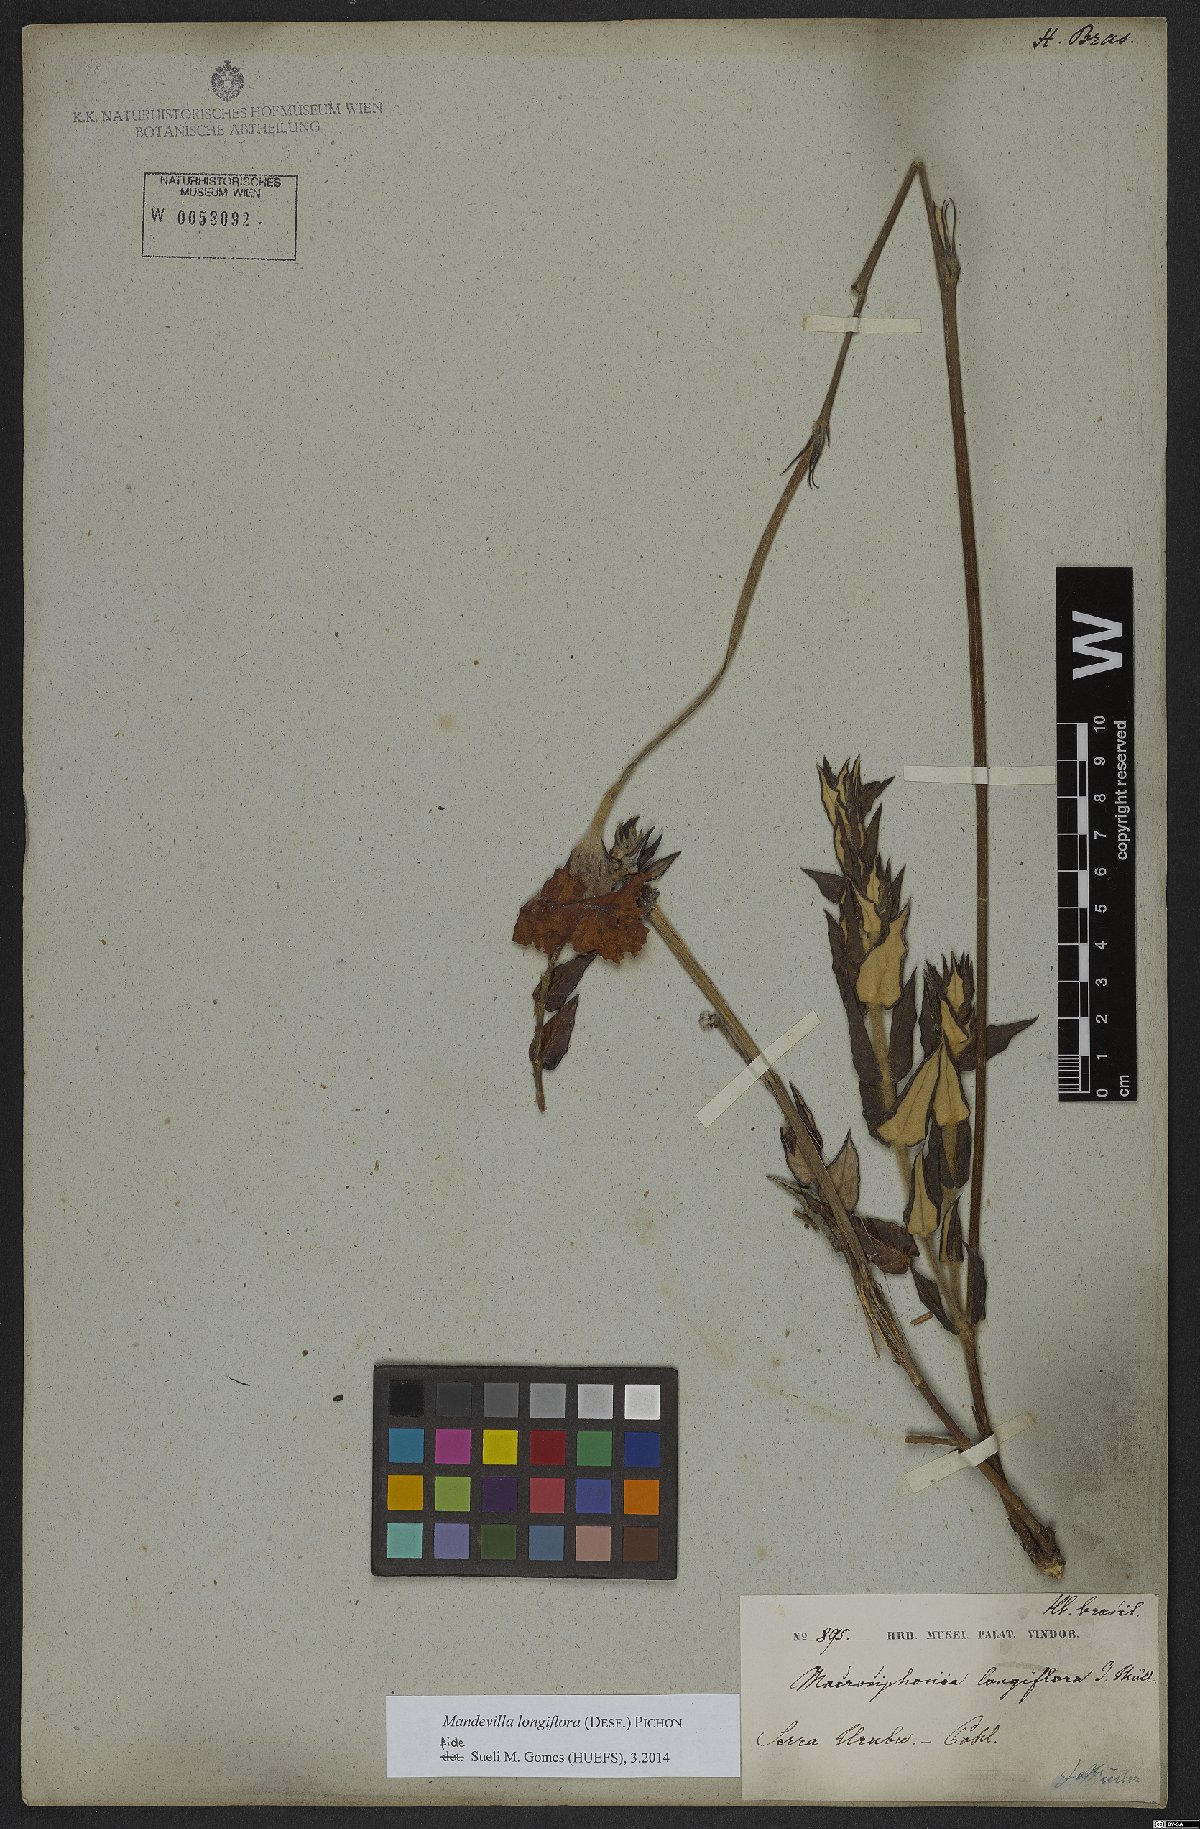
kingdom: Plantae
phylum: Tracheophyta
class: Magnoliopsida
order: Gentianales
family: Apocynaceae
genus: Mandevilla
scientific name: Mandevilla longiflora
